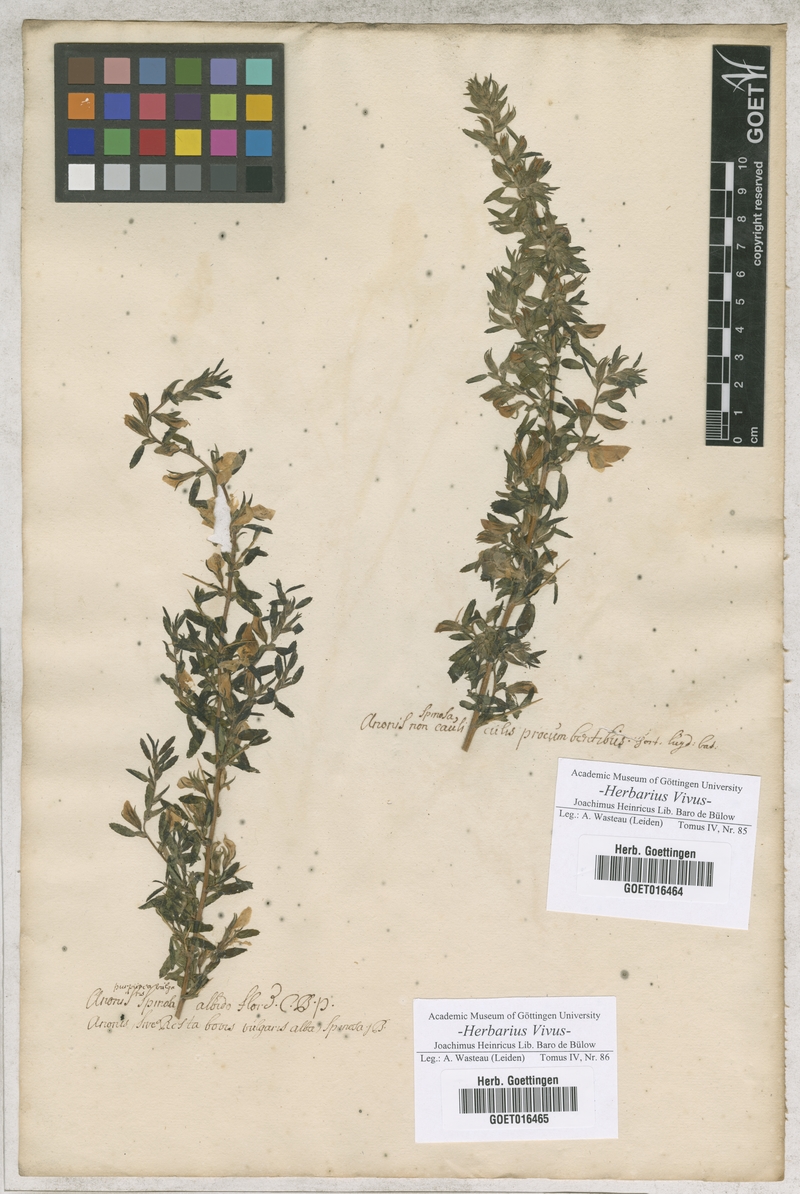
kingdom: Plantae
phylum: Tracheophyta
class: Magnoliopsida
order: Fabales
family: Fabaceae
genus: Ononis
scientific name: Ononis
